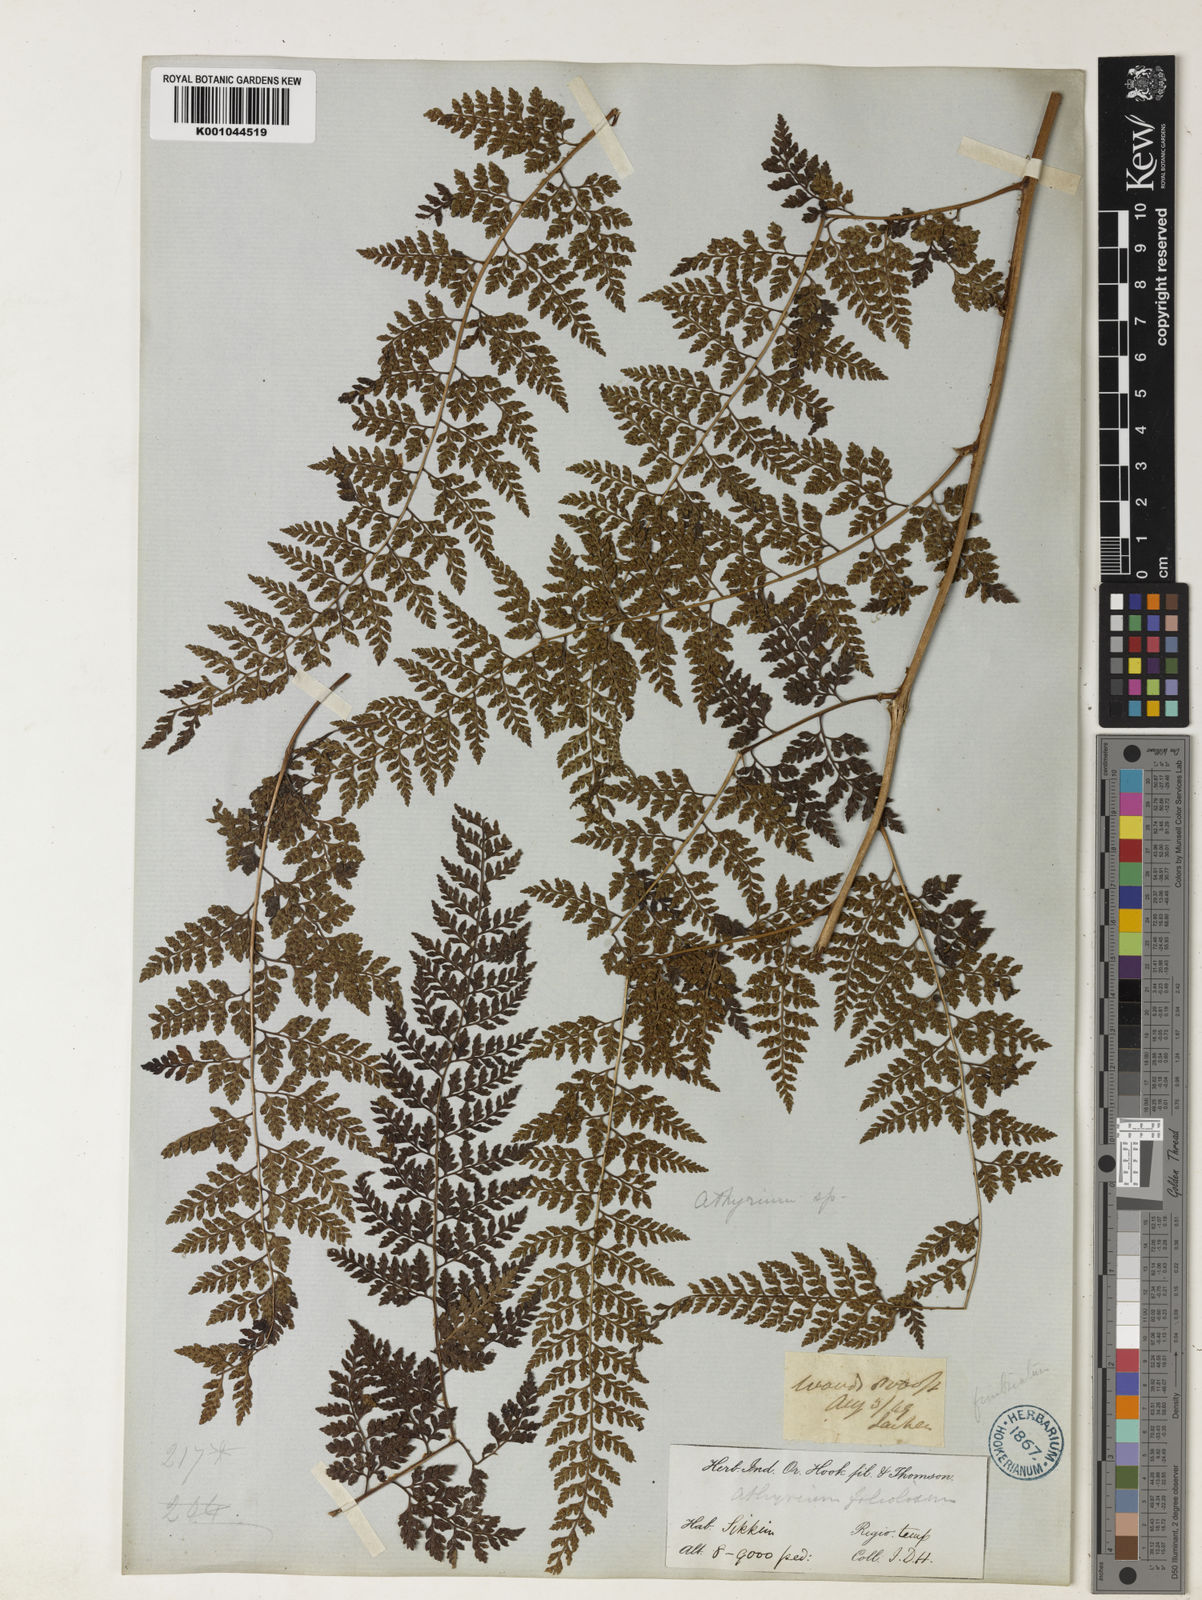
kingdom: Plantae
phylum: Tracheophyta
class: Polypodiopsida
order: Polypodiales
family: Athyriaceae
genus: Athyrium
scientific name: Athyrium fimbriatum
